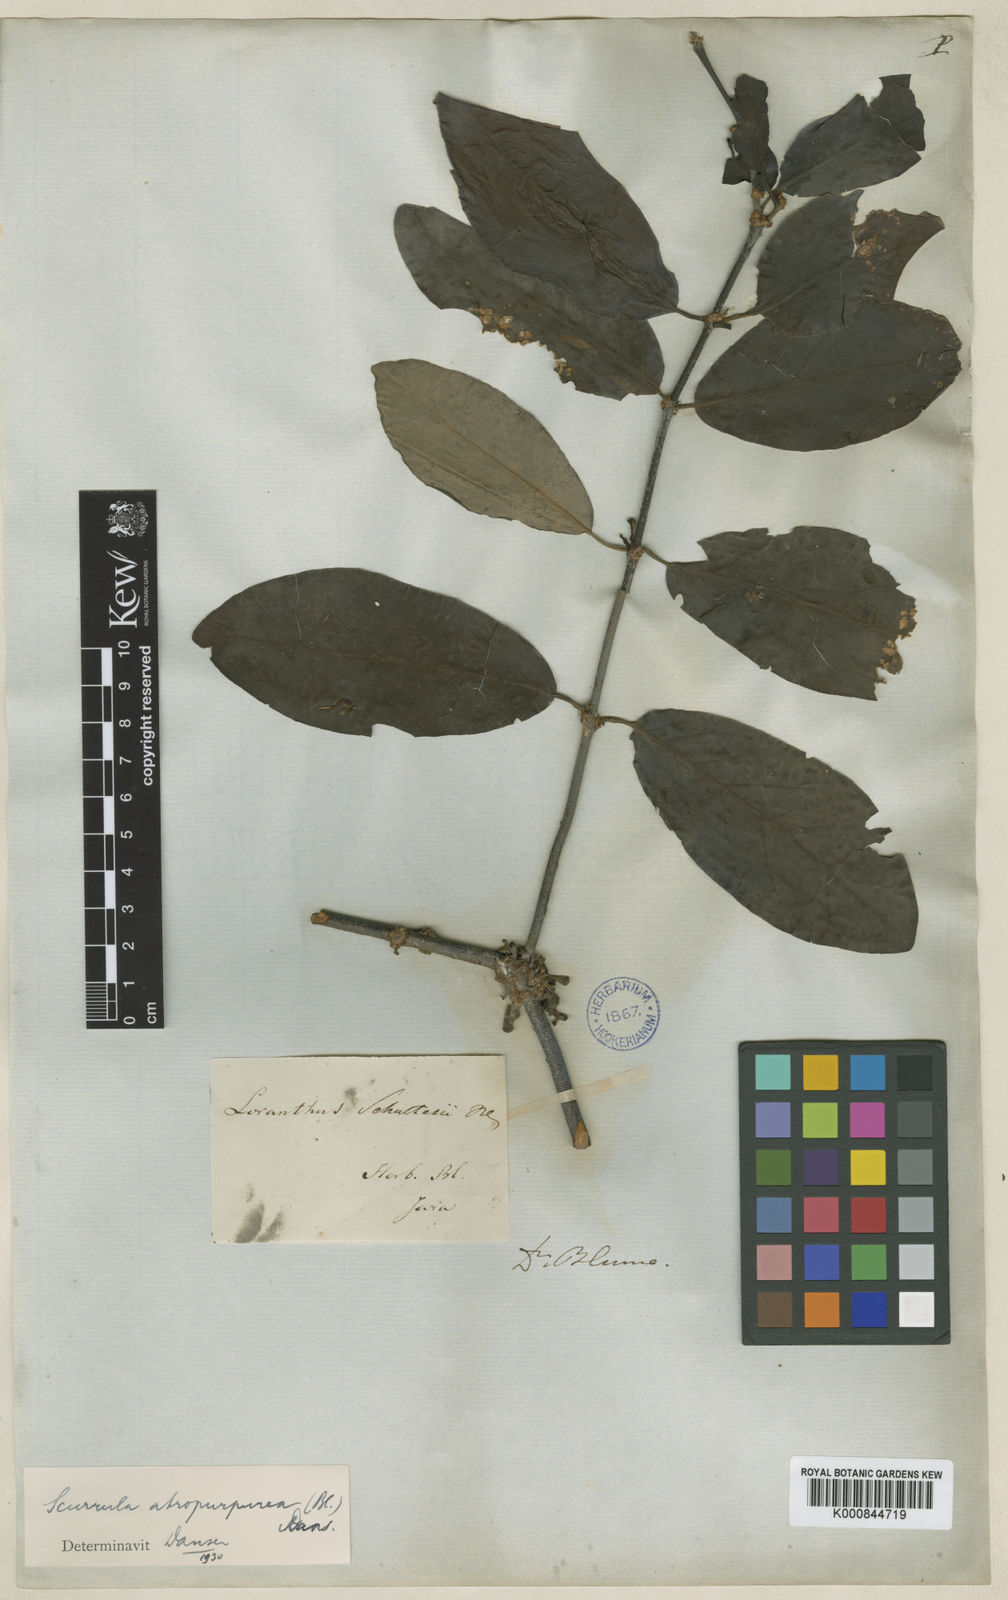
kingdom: Plantae
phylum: Tracheophyta
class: Magnoliopsida
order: Santalales
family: Loranthaceae
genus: Scurrula
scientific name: Scurrula atropurpurea
